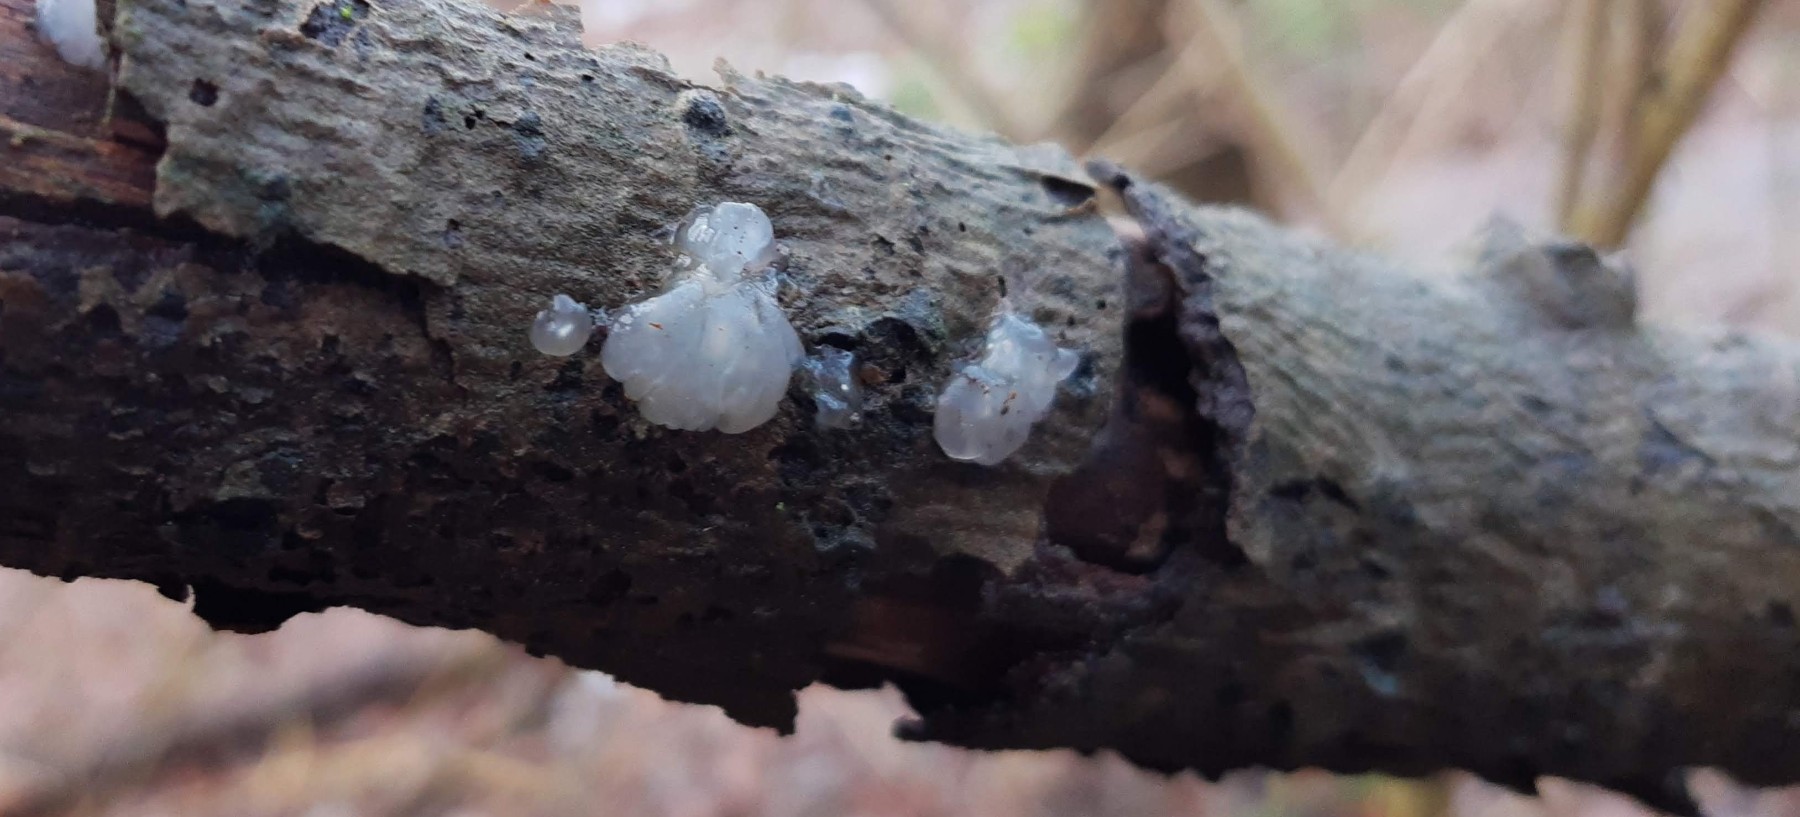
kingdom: Fungi
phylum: Basidiomycota
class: Agaricomycetes
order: Auriculariales
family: Hyaloriaceae
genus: Myxarium
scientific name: Myxarium nucleatum
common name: klar bævretop
